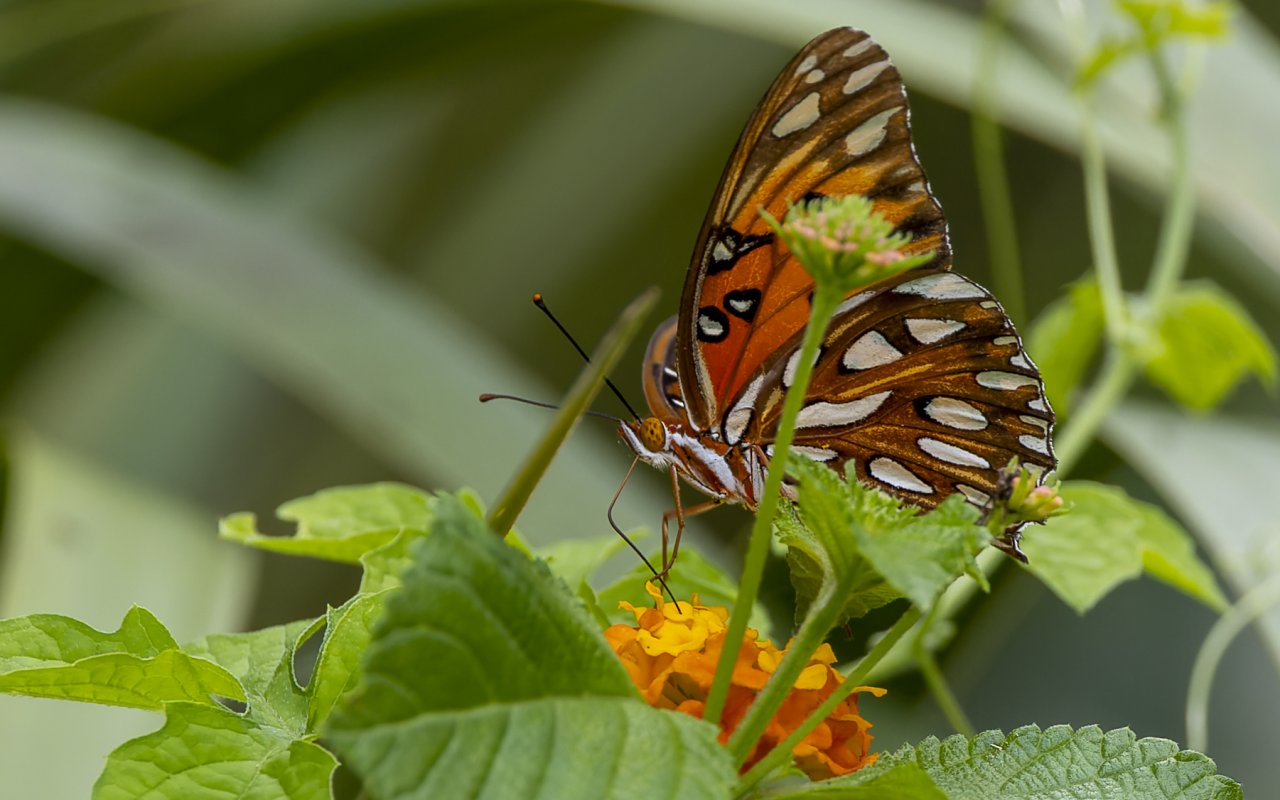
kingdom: Animalia
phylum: Arthropoda
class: Insecta
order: Lepidoptera
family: Nymphalidae
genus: Dione
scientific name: Dione vanillae
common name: Gulf Fritillary
